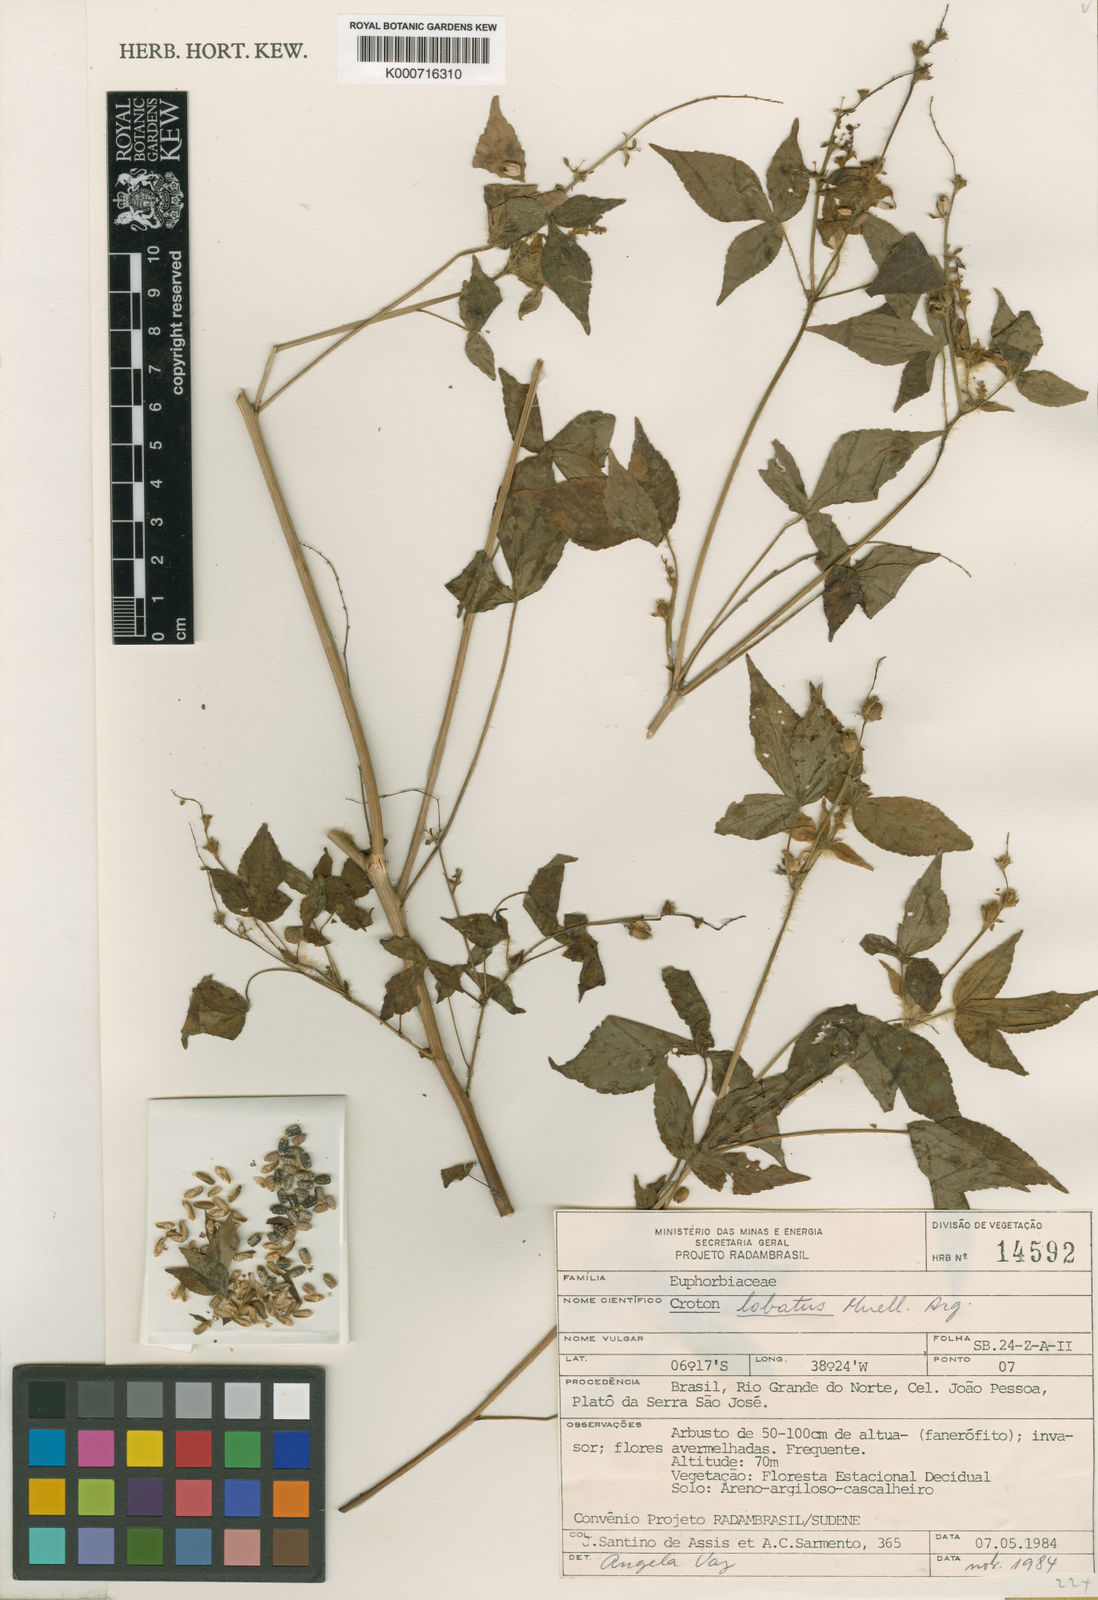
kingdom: Plantae
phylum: Tracheophyta
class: Magnoliopsida
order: Malpighiales
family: Euphorbiaceae
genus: Astraea
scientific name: Astraea lobata
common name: Lobed croton
